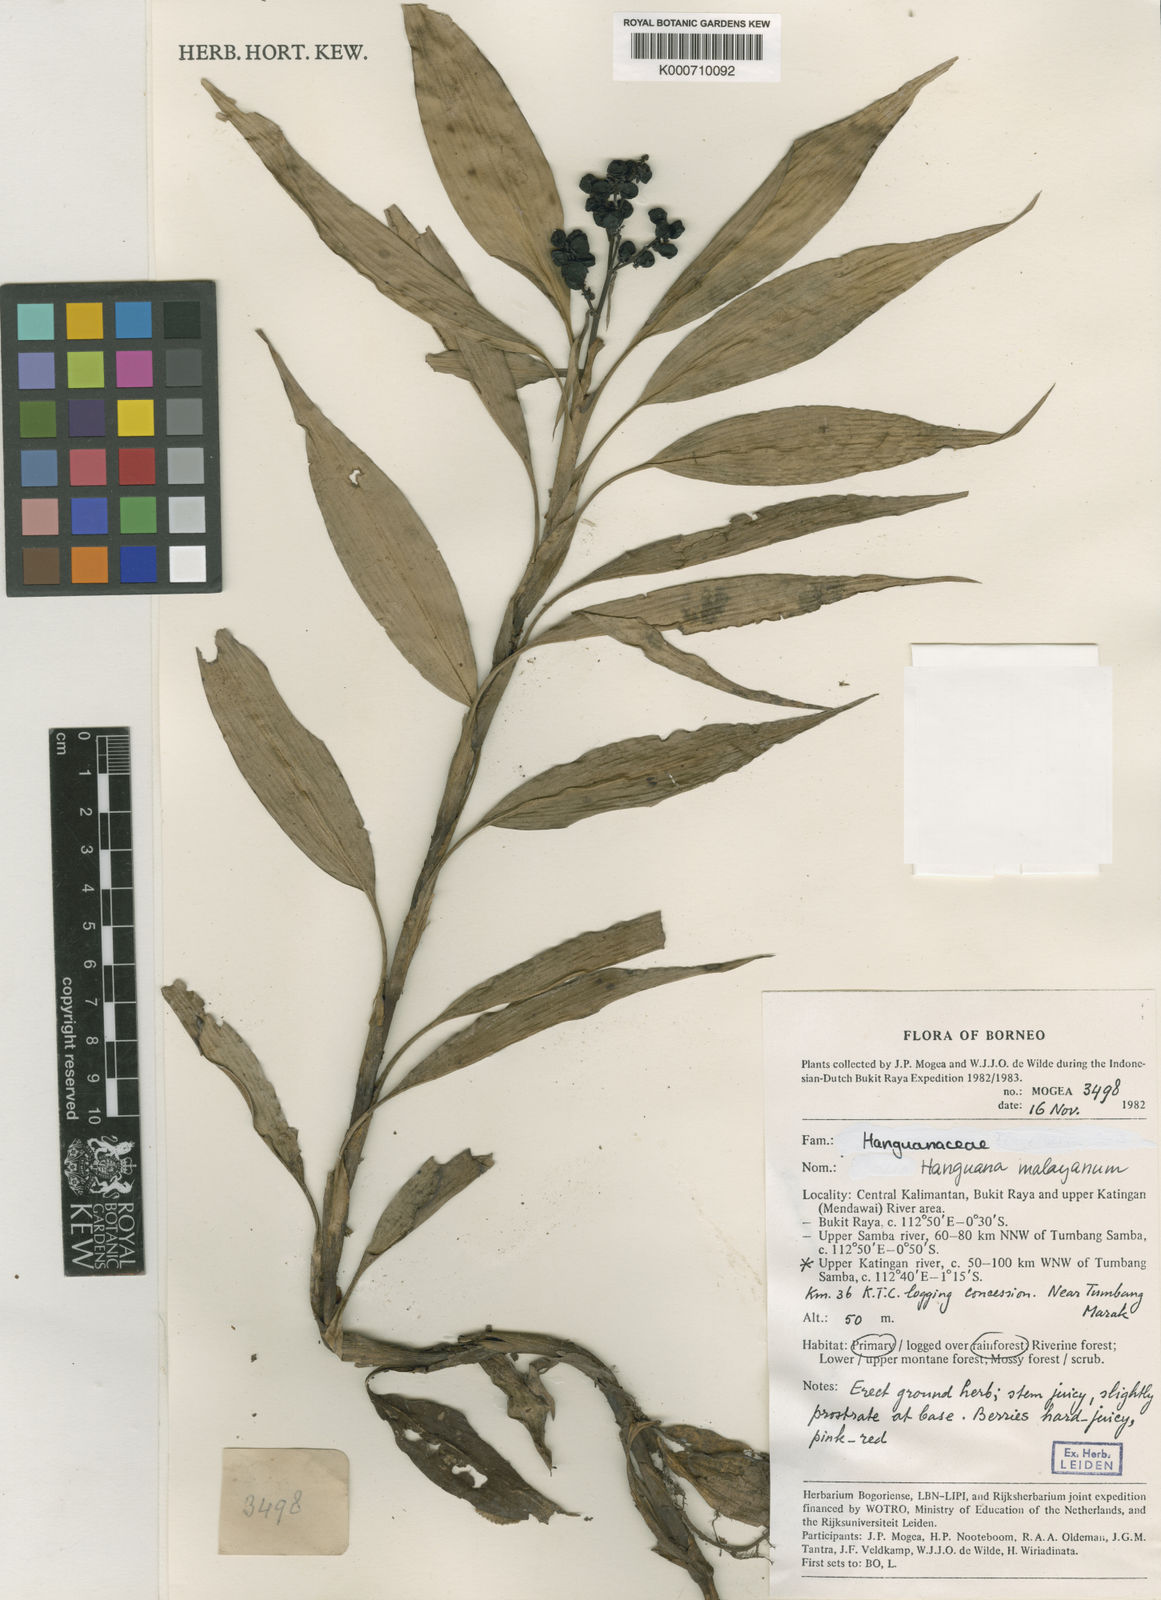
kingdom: Plantae
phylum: Tracheophyta
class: Liliopsida
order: Commelinales
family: Hanguanaceae
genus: Hanguana
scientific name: Hanguana malayana
